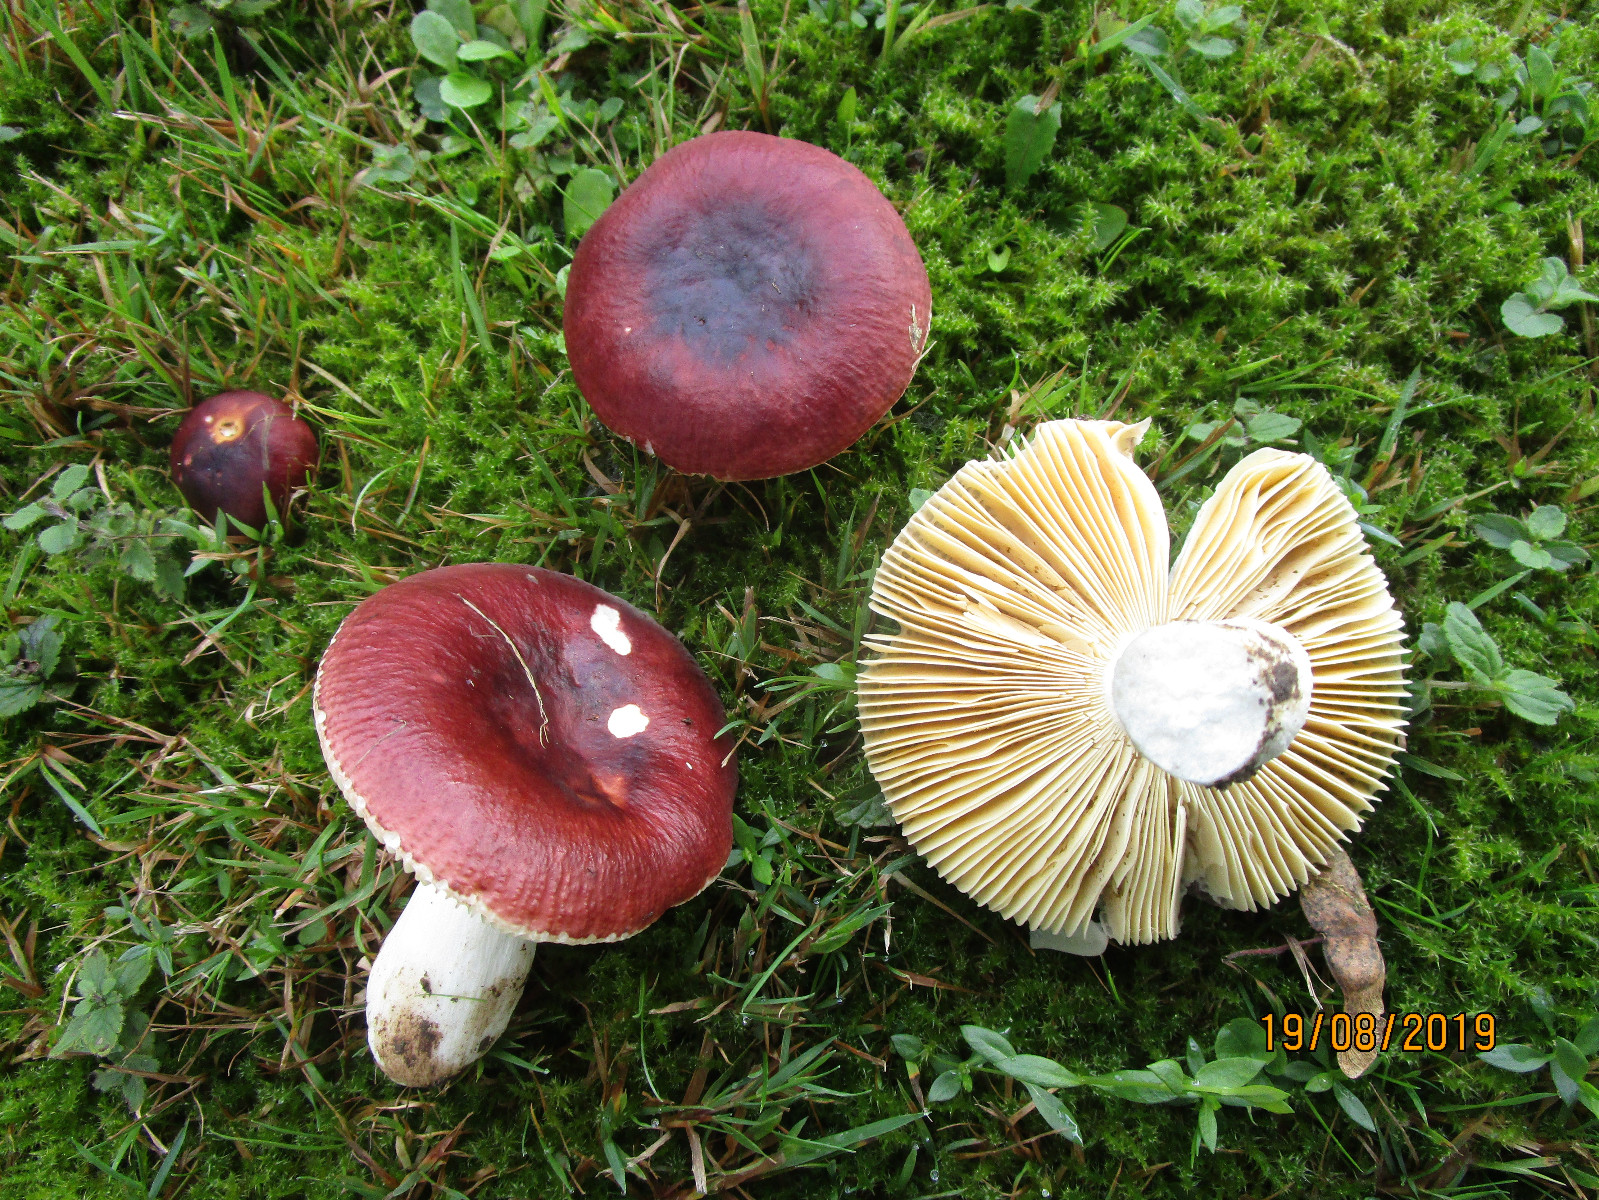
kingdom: Fungi
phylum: Basidiomycota
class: Agaricomycetes
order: Russulales
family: Russulaceae
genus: Russula
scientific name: Russula integra
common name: mandel-skørhat
